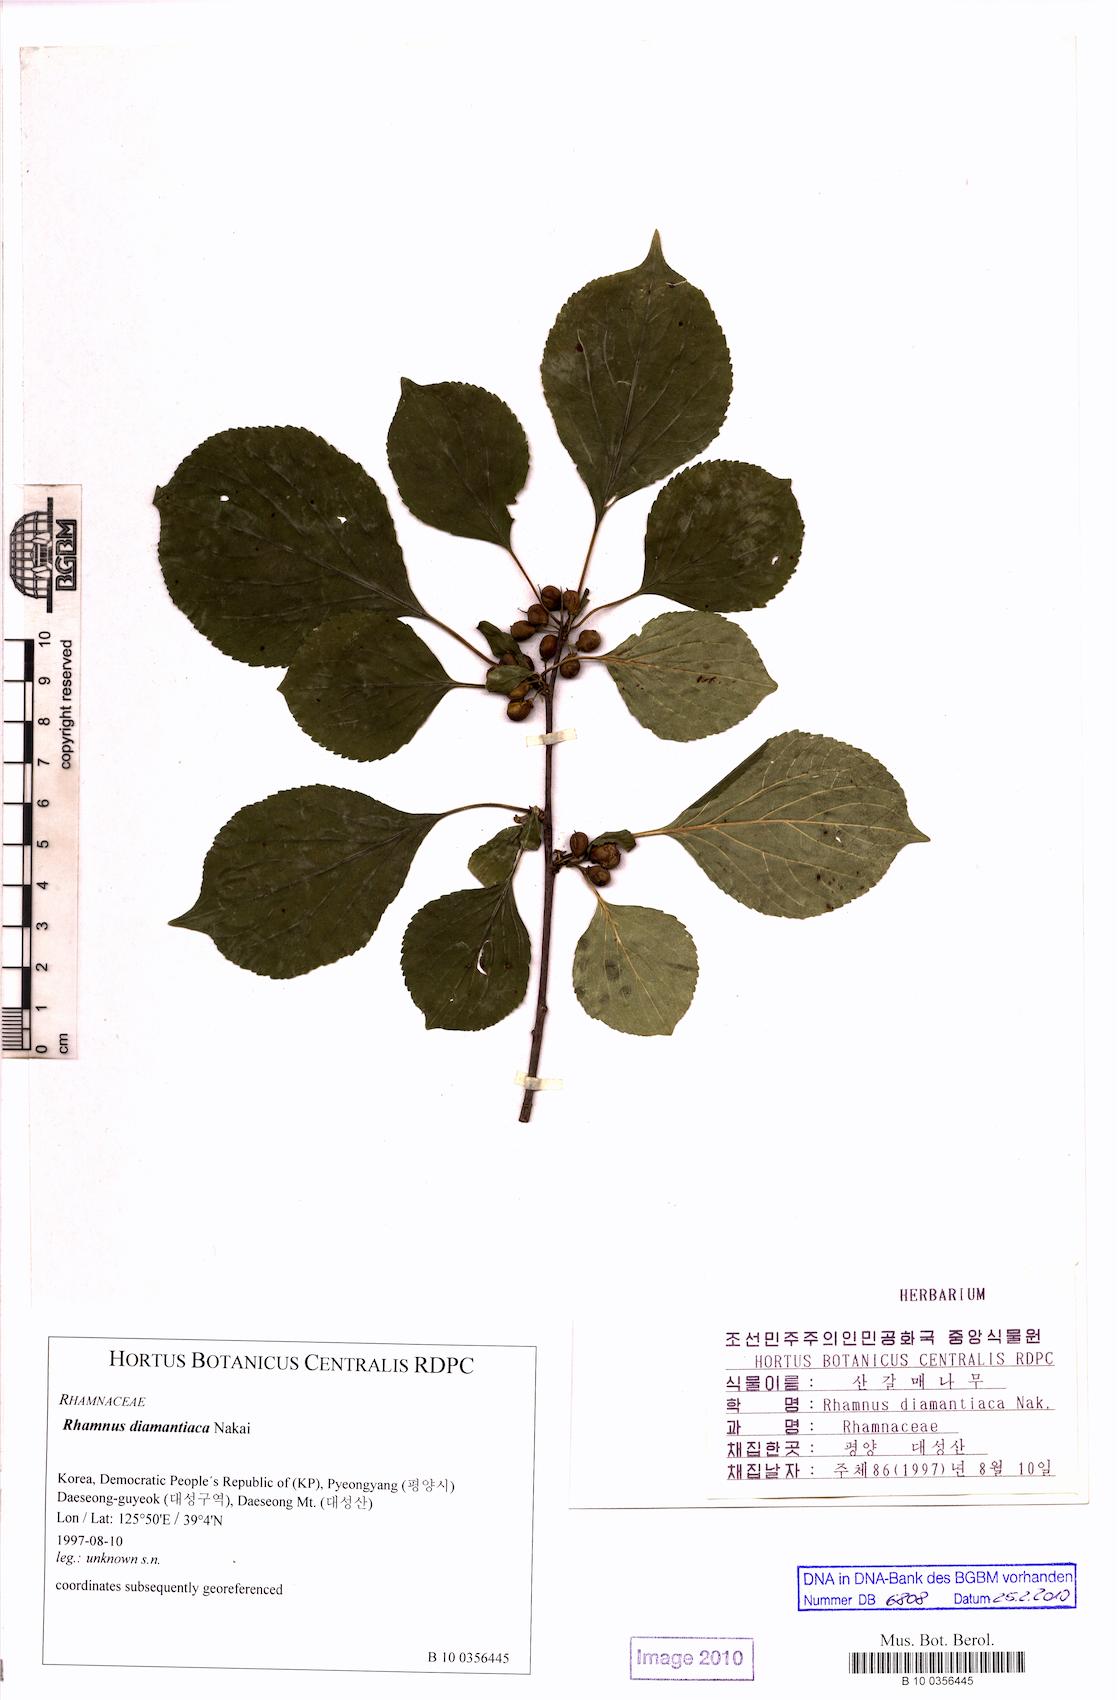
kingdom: Plantae
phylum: Tracheophyta
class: Magnoliopsida
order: Rosales
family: Rhamnaceae
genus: Rhamnus
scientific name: Rhamnus rugulosa
